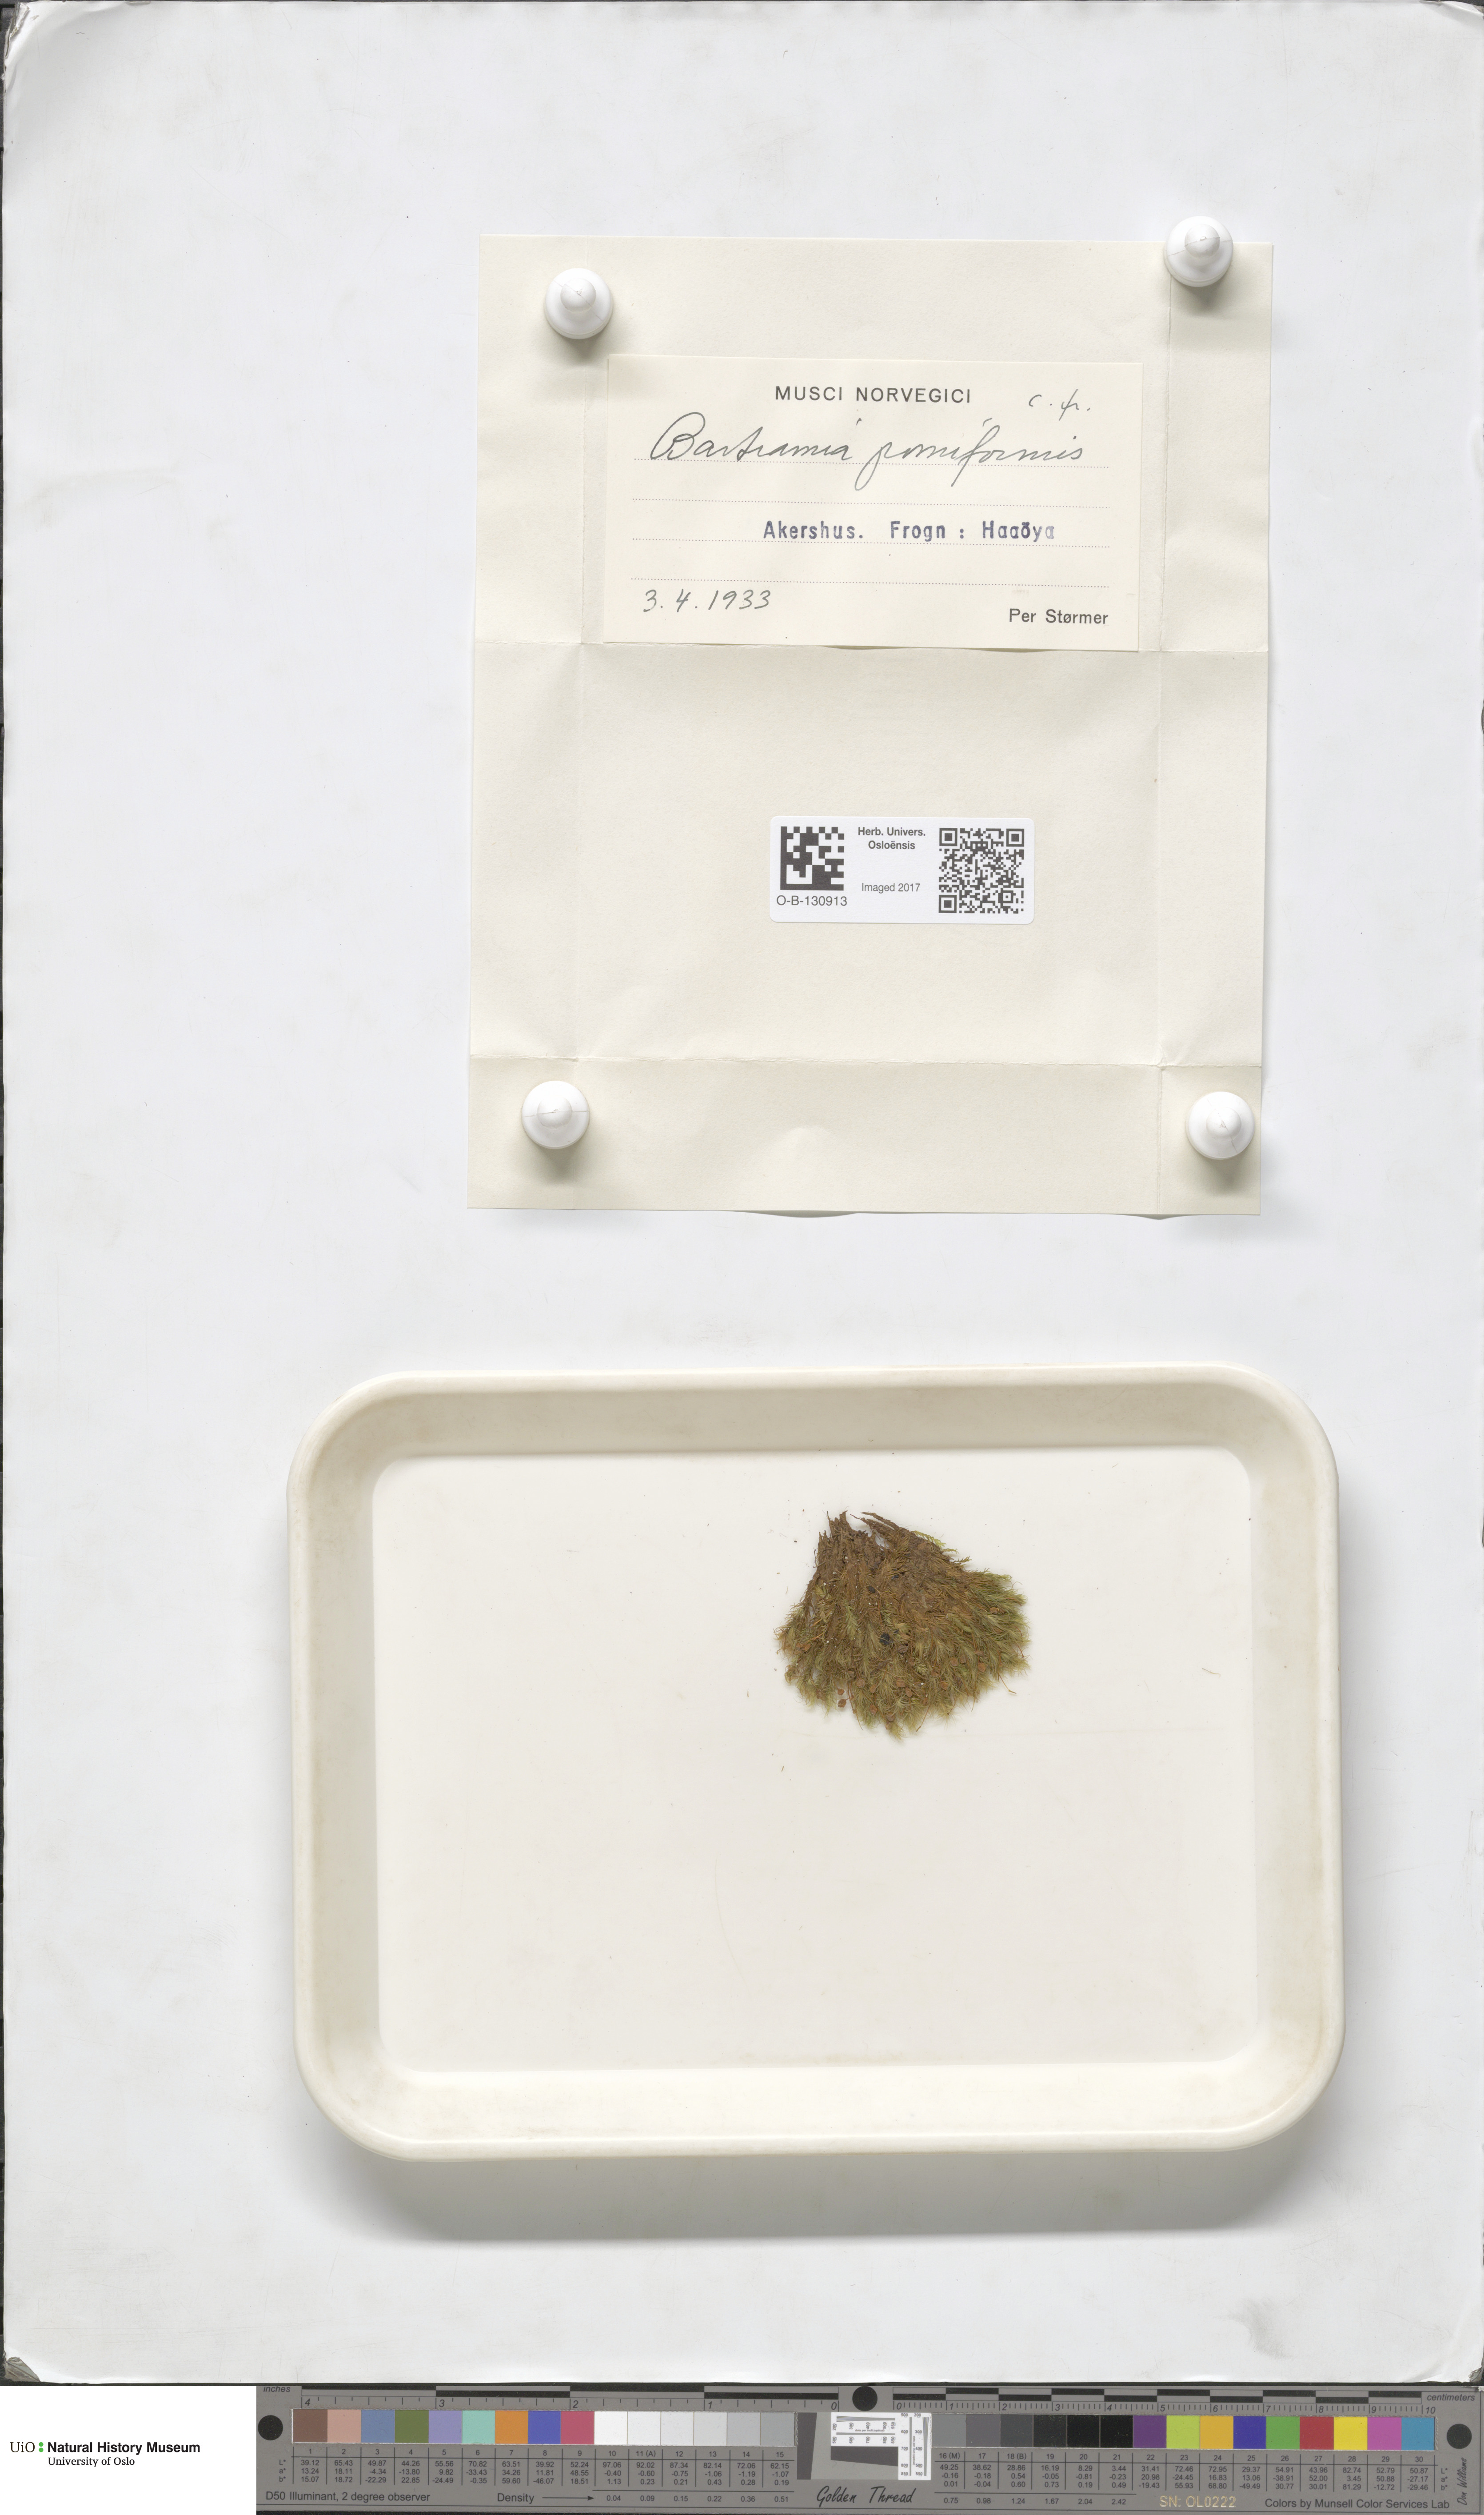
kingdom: Plantae
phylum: Bryophyta
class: Bryopsida
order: Bartramiales
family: Bartramiaceae
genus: Bartramia
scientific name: Bartramia pomiformis
